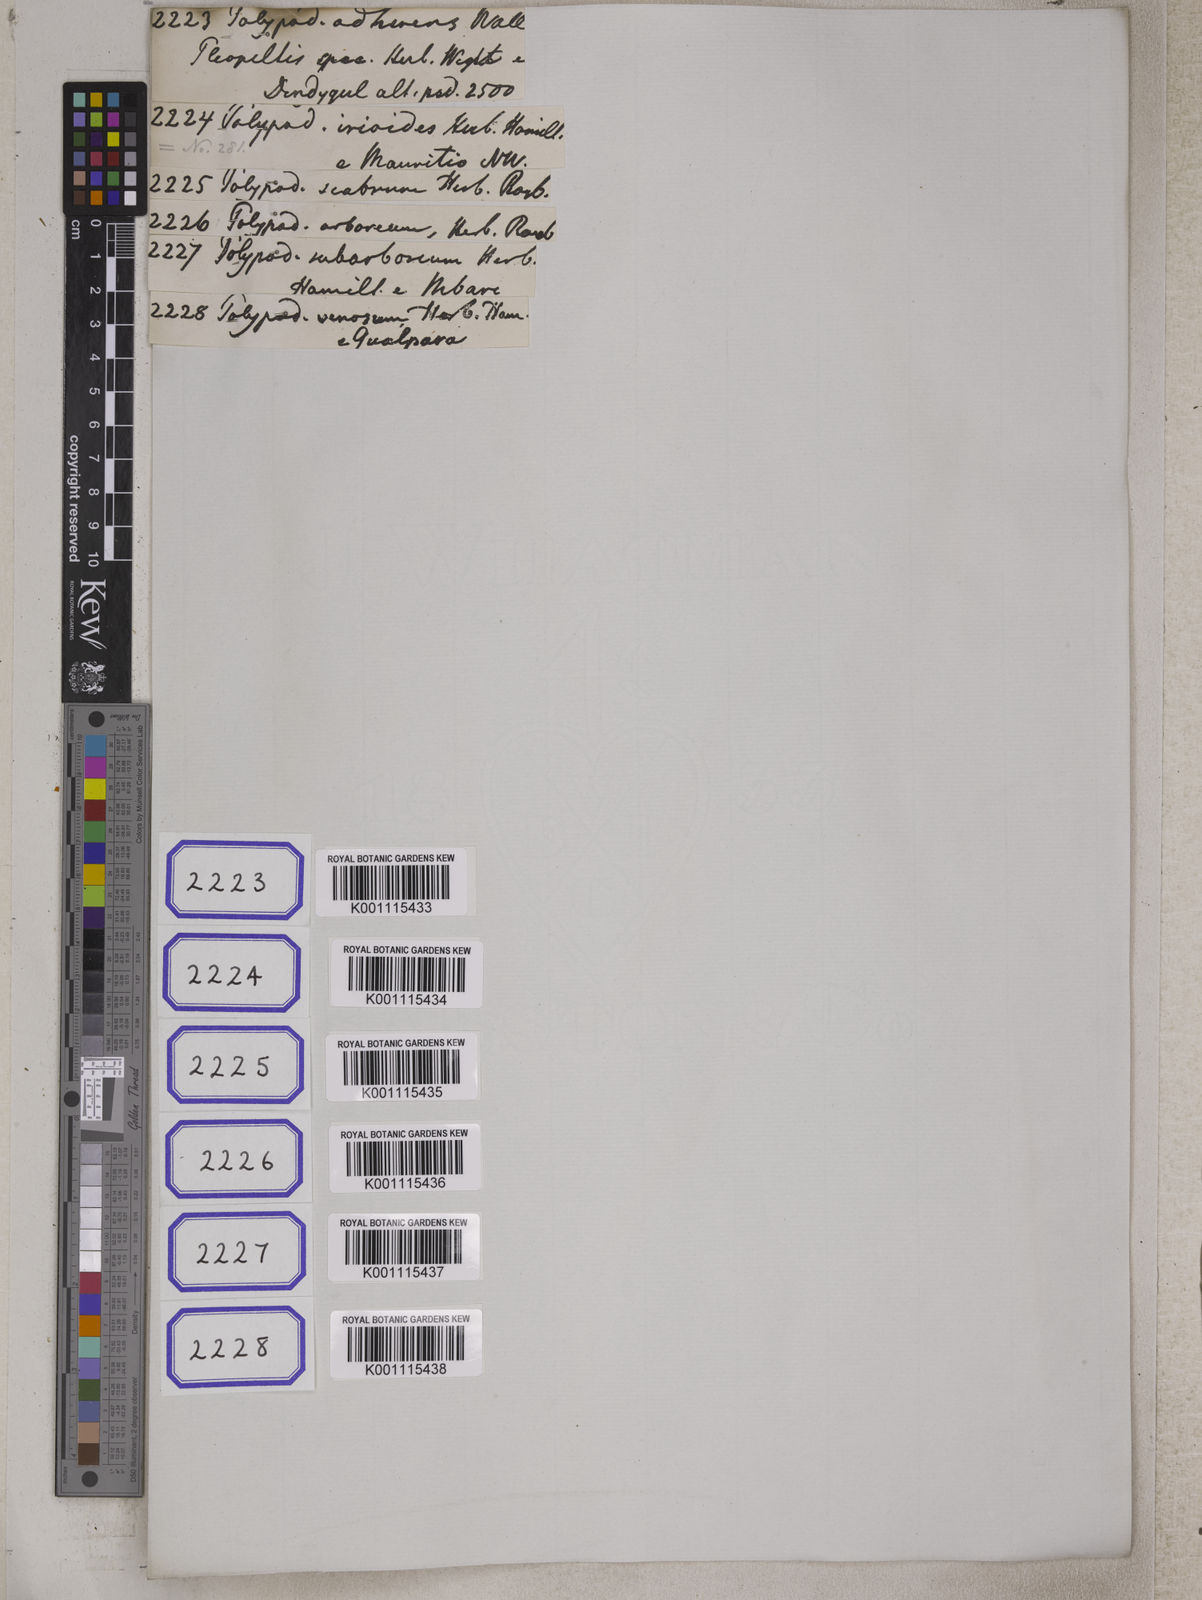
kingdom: Plantae
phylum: Tracheophyta
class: Polypodiopsida
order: Cyatheales
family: Cyatheaceae
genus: Alsophila
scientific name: Alsophila polycarpa
